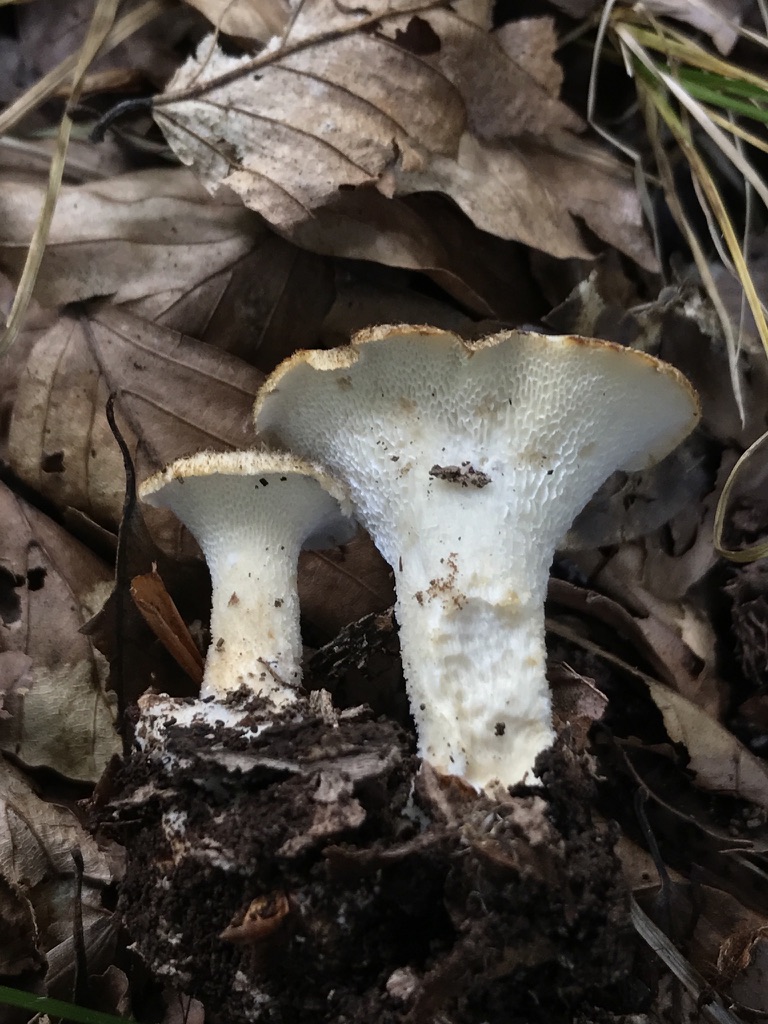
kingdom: Fungi
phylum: Basidiomycota
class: Agaricomycetes
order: Polyporales
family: Polyporaceae
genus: Polyporus
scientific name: Polyporus tuberaster
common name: knoldet stilkporesvamp
